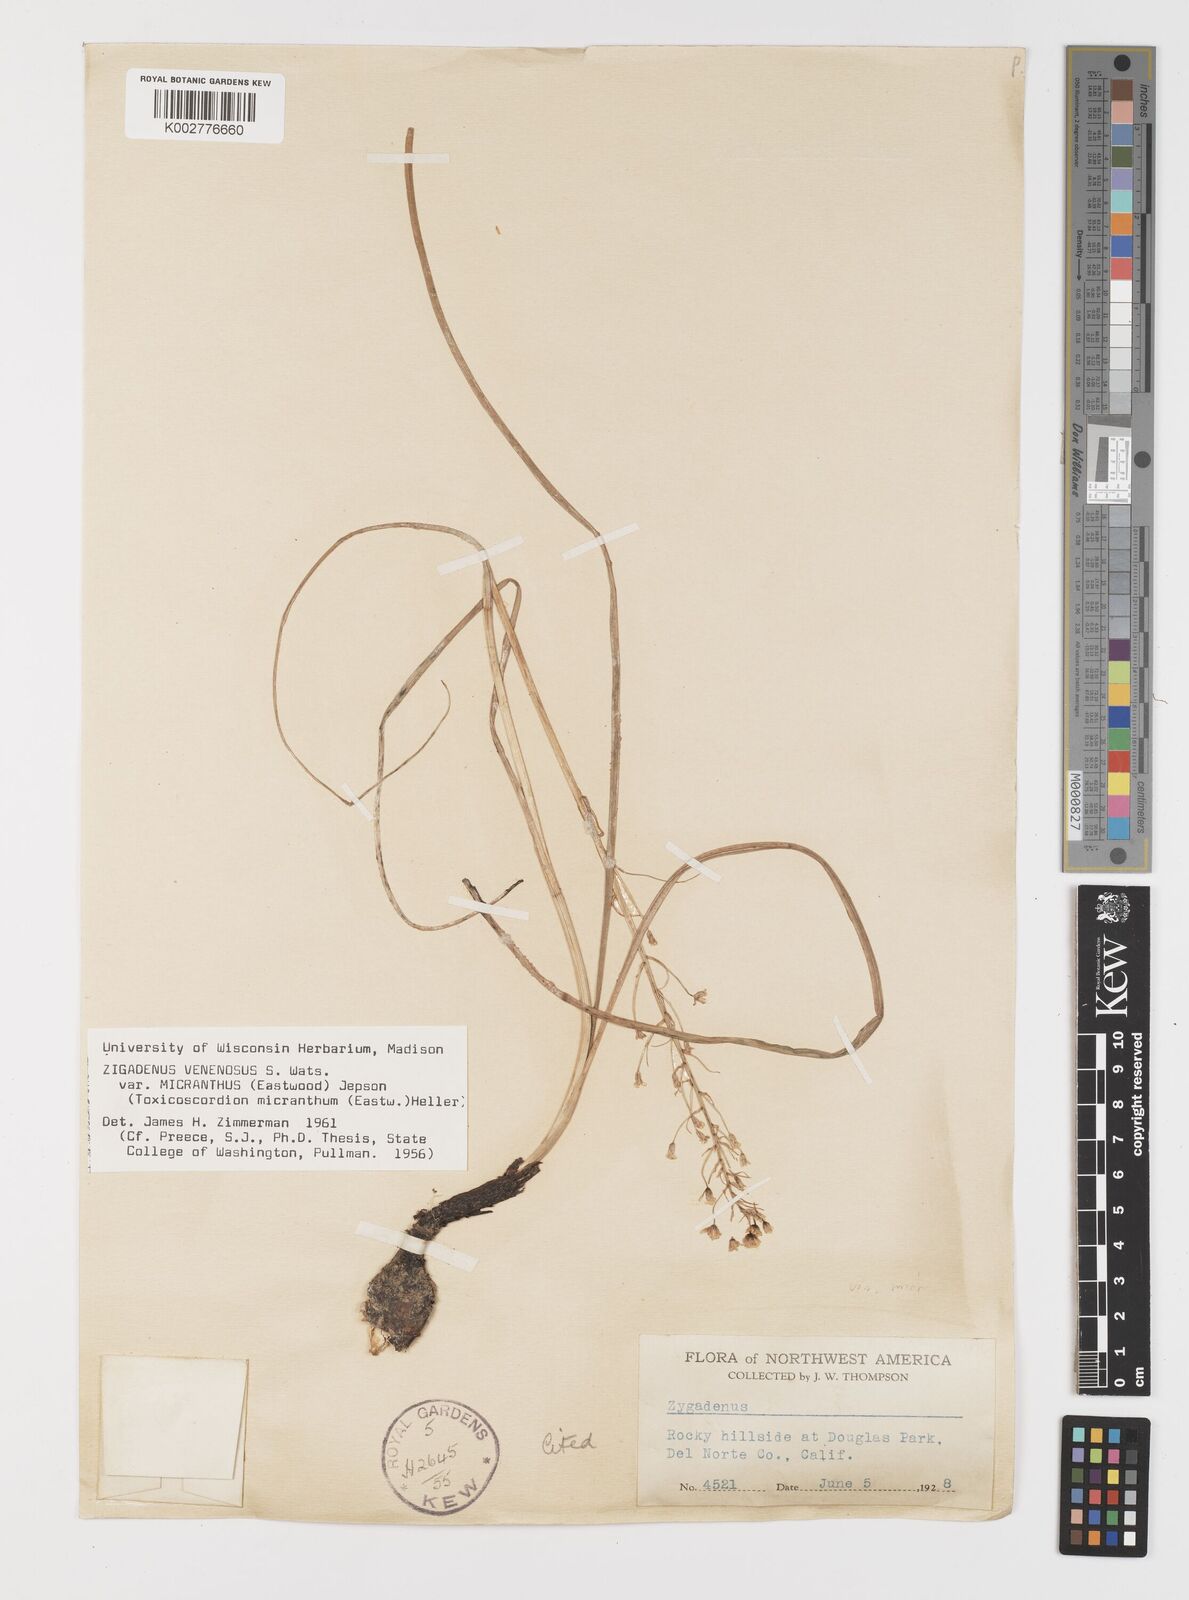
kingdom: Plantae
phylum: Tracheophyta
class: Liliopsida
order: Liliales
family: Melanthiaceae
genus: Toxicoscordion
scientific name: Toxicoscordion venenosum
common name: Meadow death camas
